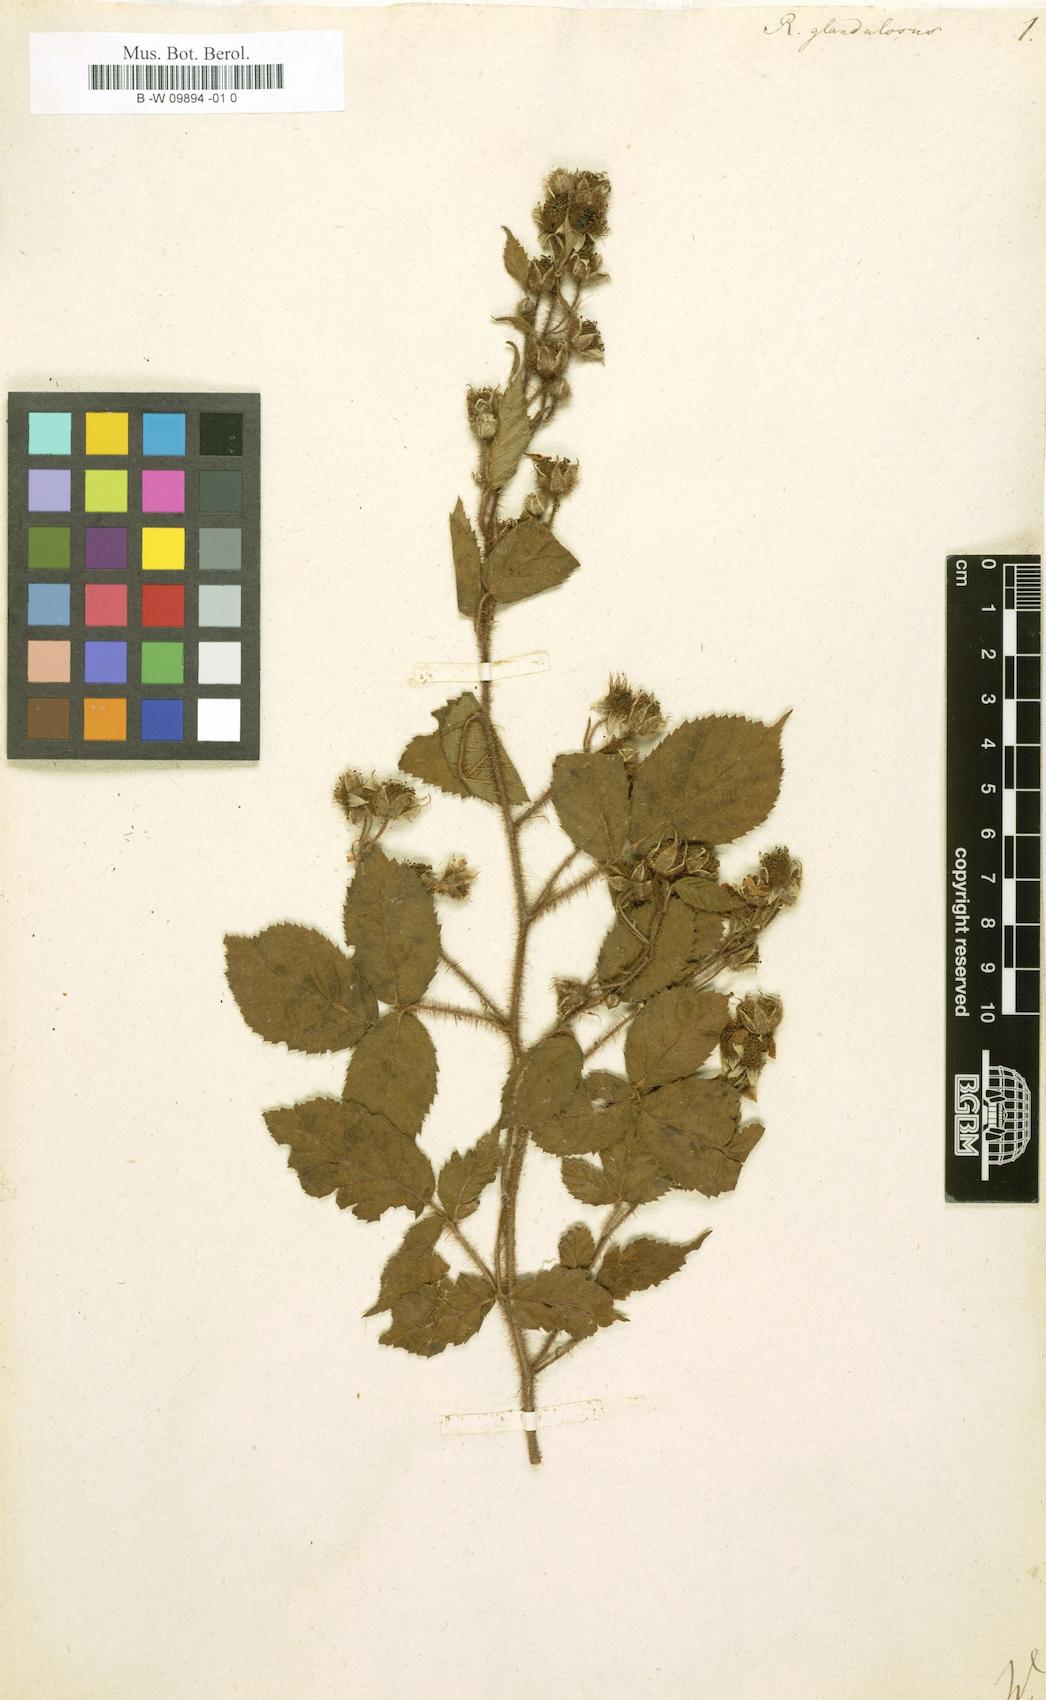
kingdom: Plantae
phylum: Tracheophyta
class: Magnoliopsida
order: Rosales
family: Rosaceae
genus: Rubus
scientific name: Rubus
